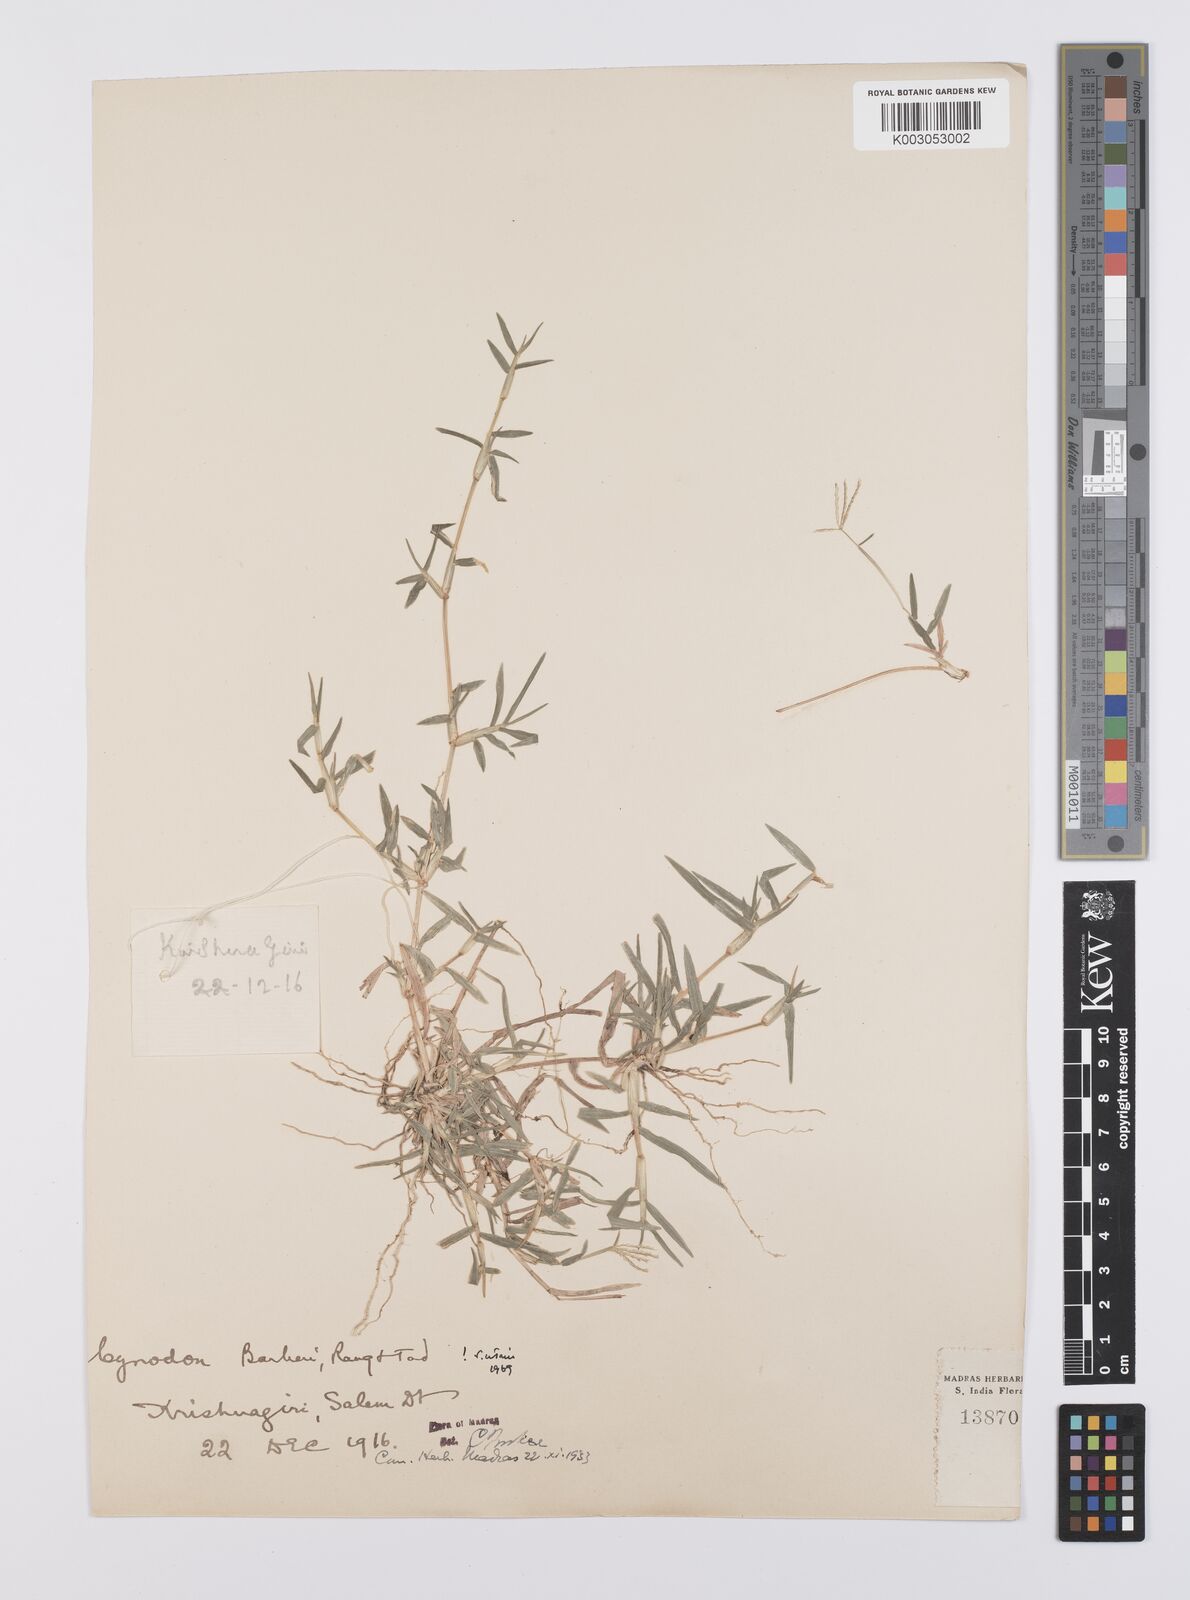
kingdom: Plantae
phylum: Tracheophyta
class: Liliopsida
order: Poales
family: Poaceae
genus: Cynodon
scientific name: Cynodon barberi
